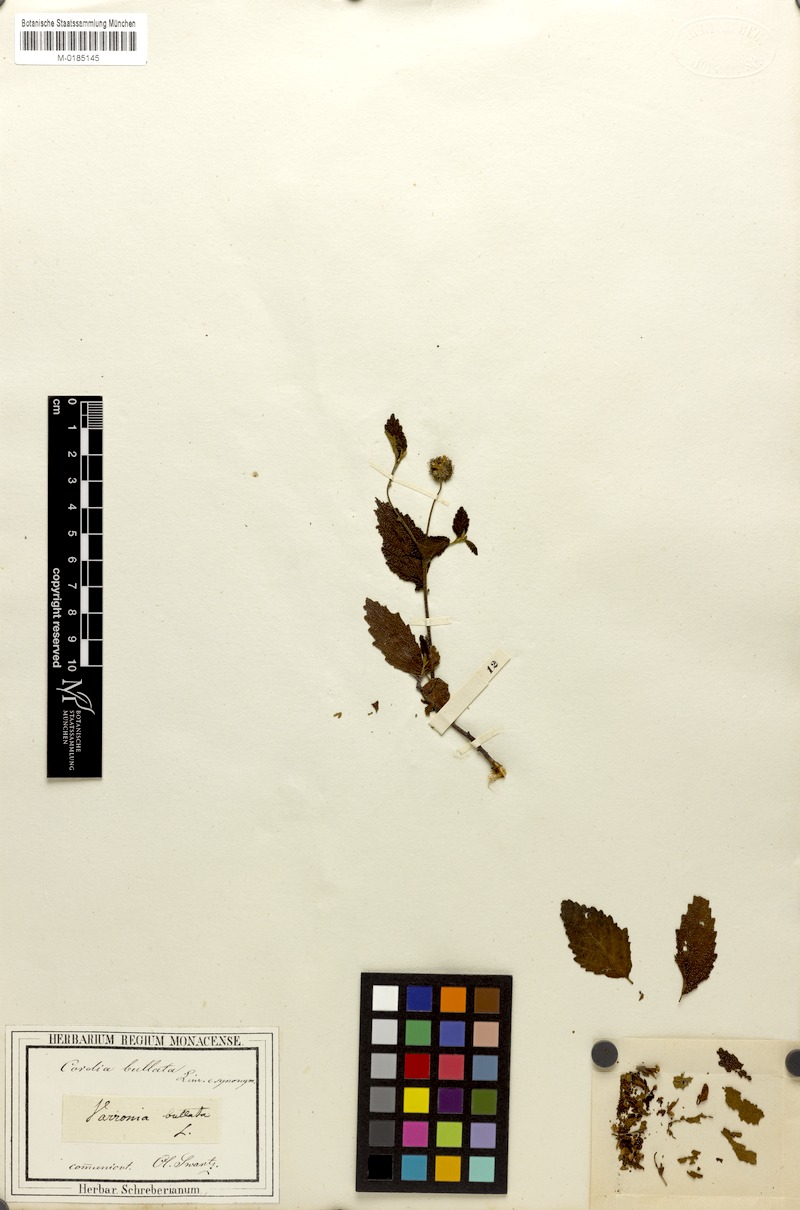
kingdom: Plantae
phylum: Tracheophyta
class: Magnoliopsida
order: Boraginales
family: Cordiaceae
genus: Varronia
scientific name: Varronia bullata
